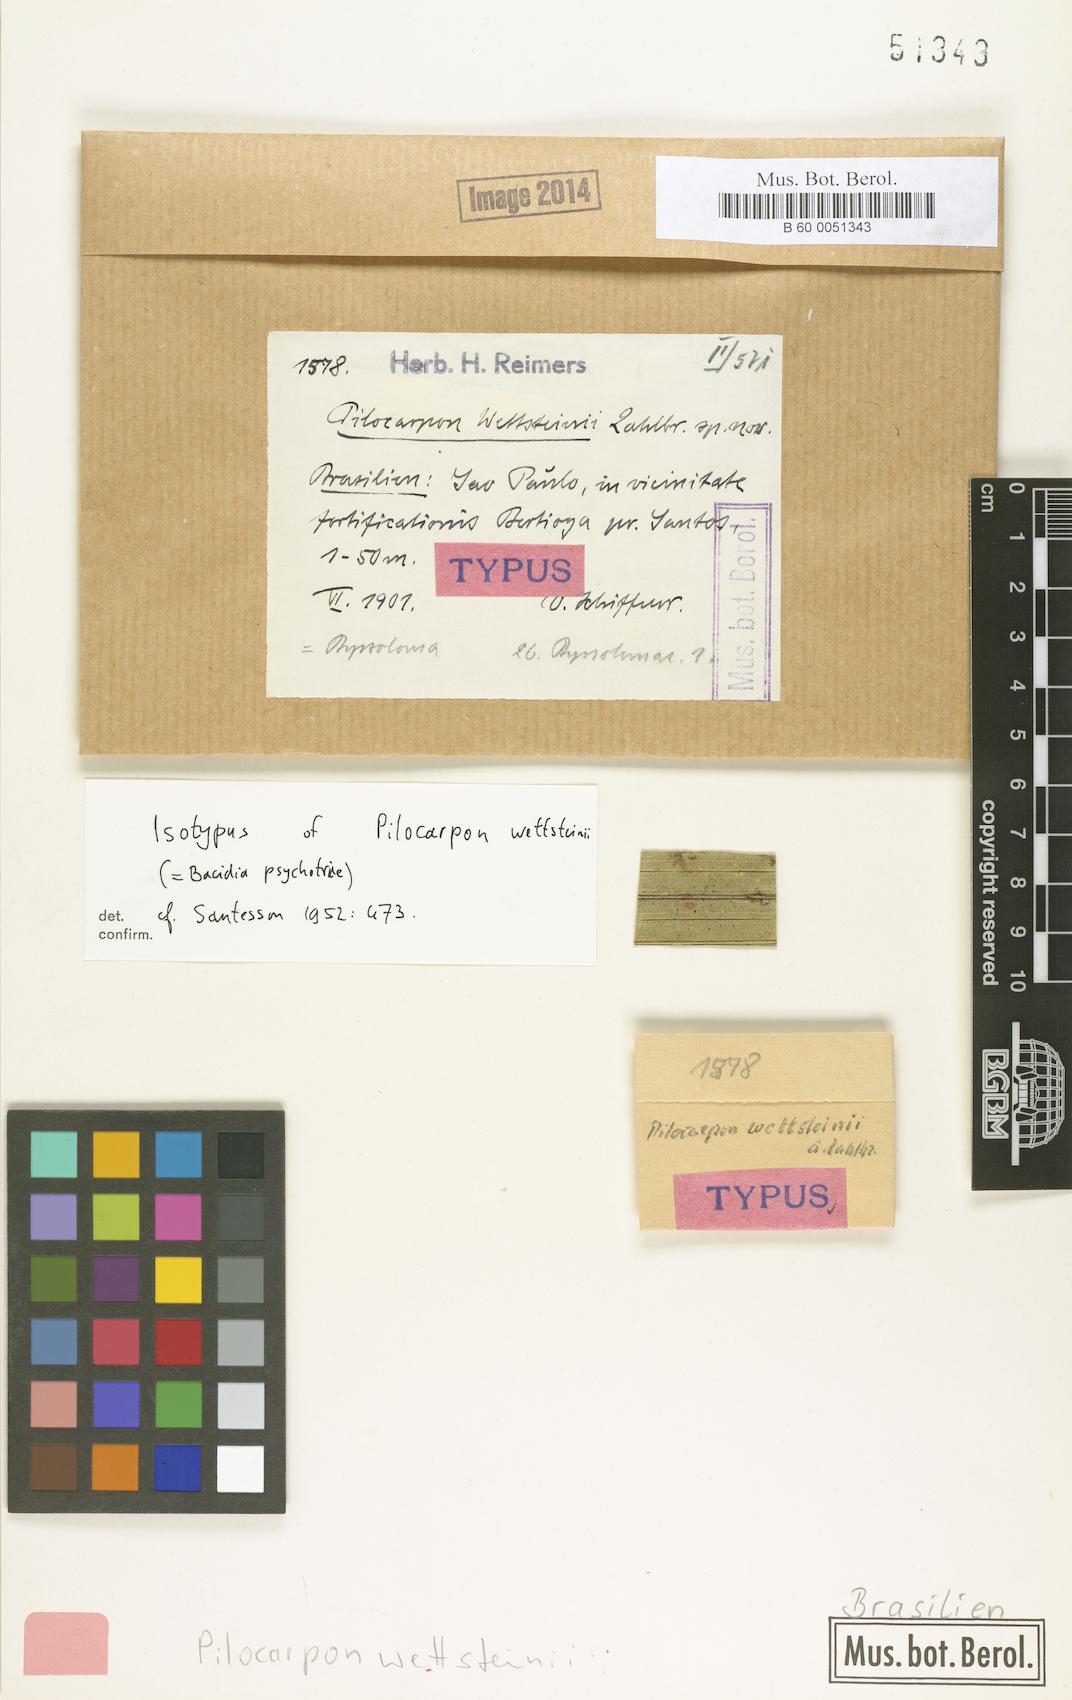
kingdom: Fungi
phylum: Ascomycota
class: Lecanoromycetes
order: Lecanorales
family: Byssolomataceae
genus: Eugeniella
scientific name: Eugeniella leucocheila
